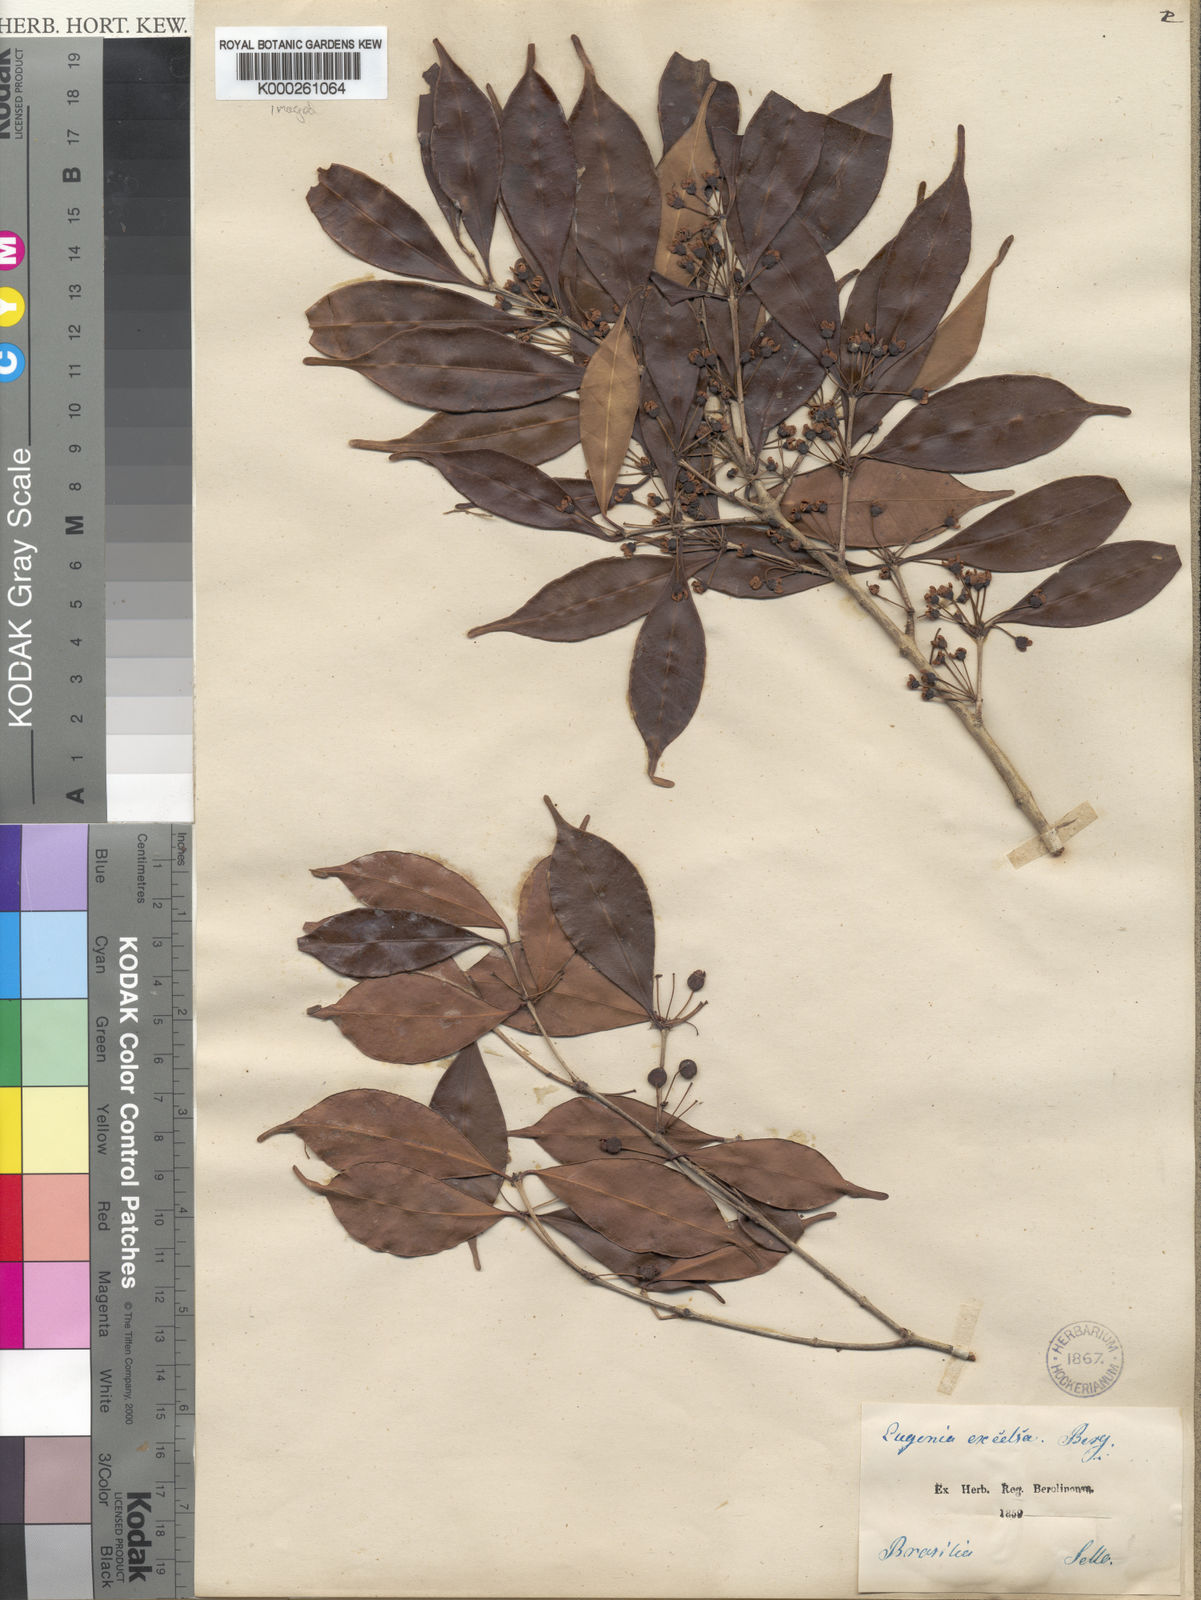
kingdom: Plantae
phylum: Tracheophyta
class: Magnoliopsida
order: Myrtales
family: Myrtaceae
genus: Eugenia
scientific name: Eugenia excelsa
